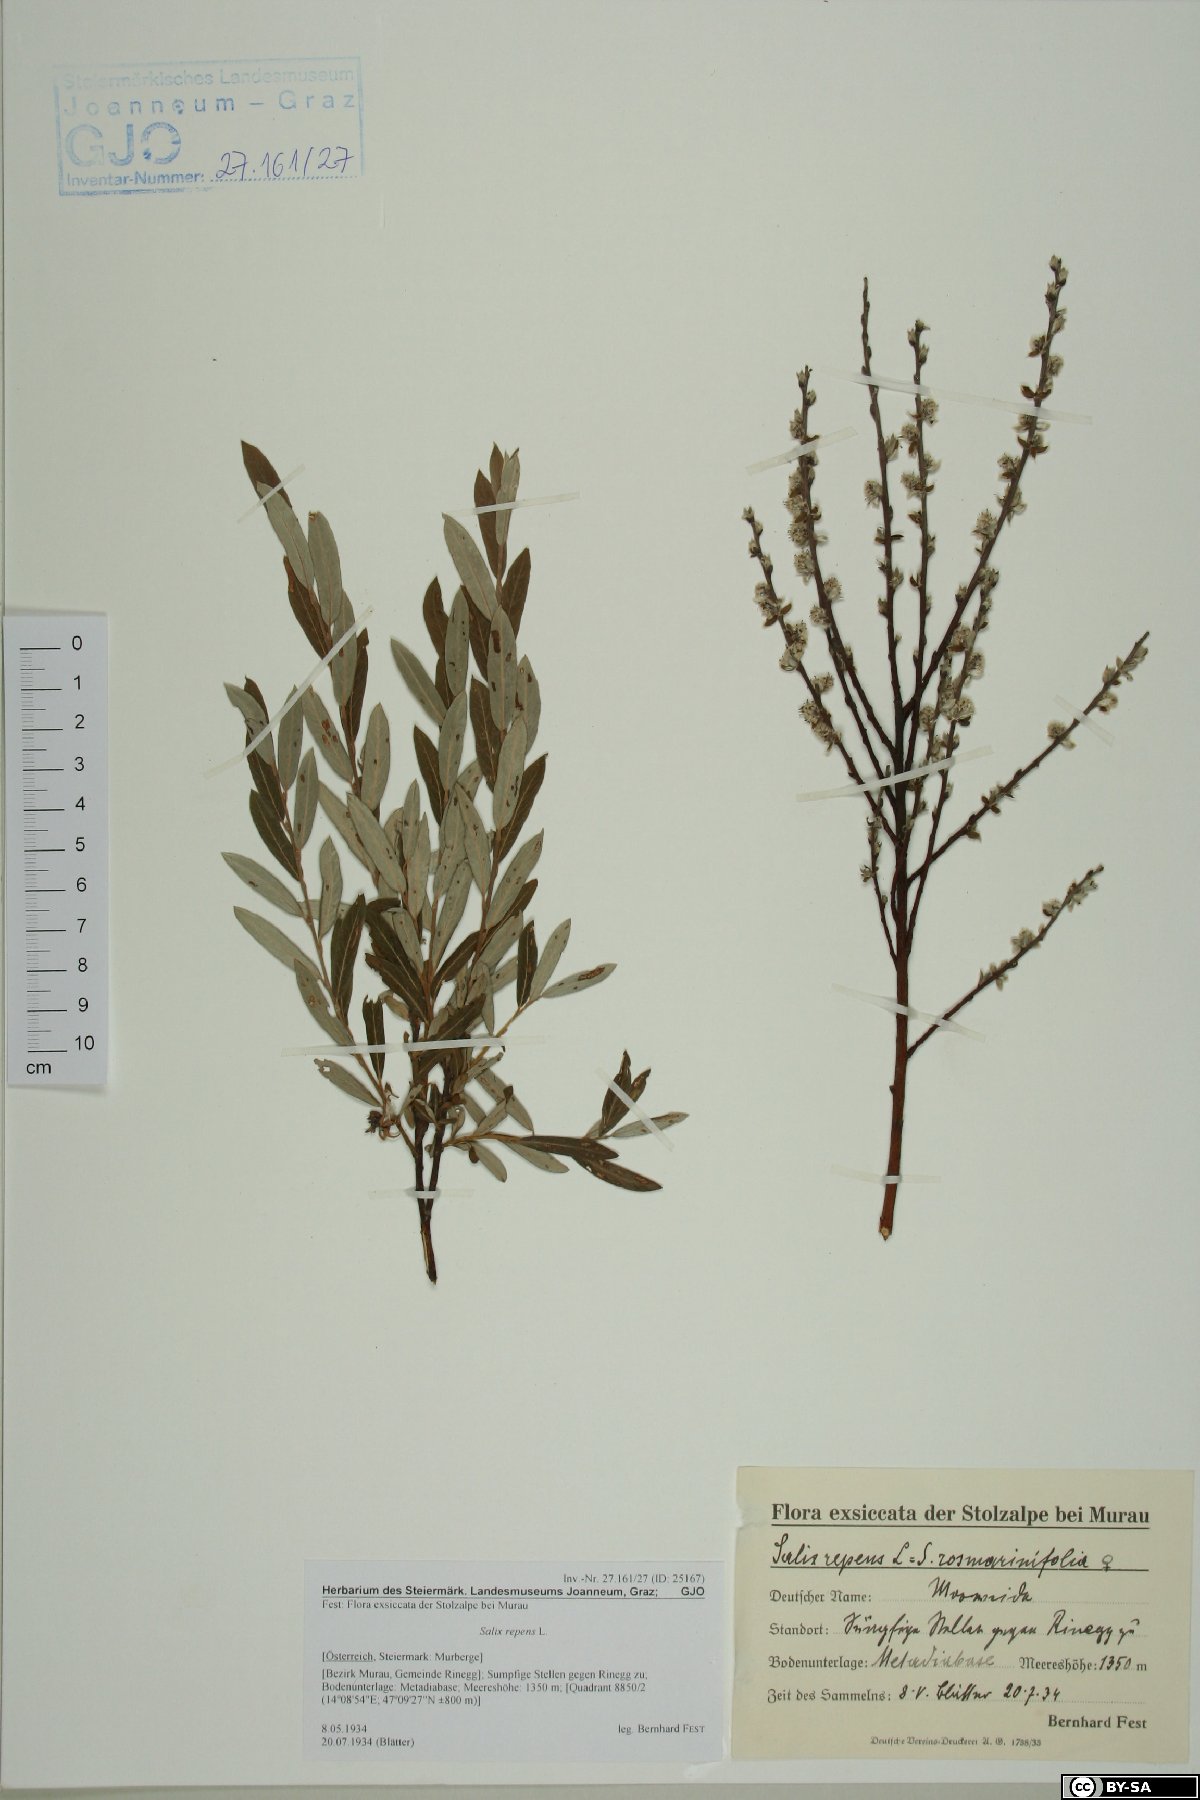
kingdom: Plantae
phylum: Tracheophyta
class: Magnoliopsida
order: Malpighiales
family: Salicaceae
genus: Salix
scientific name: Salix repens
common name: Creeping willow
